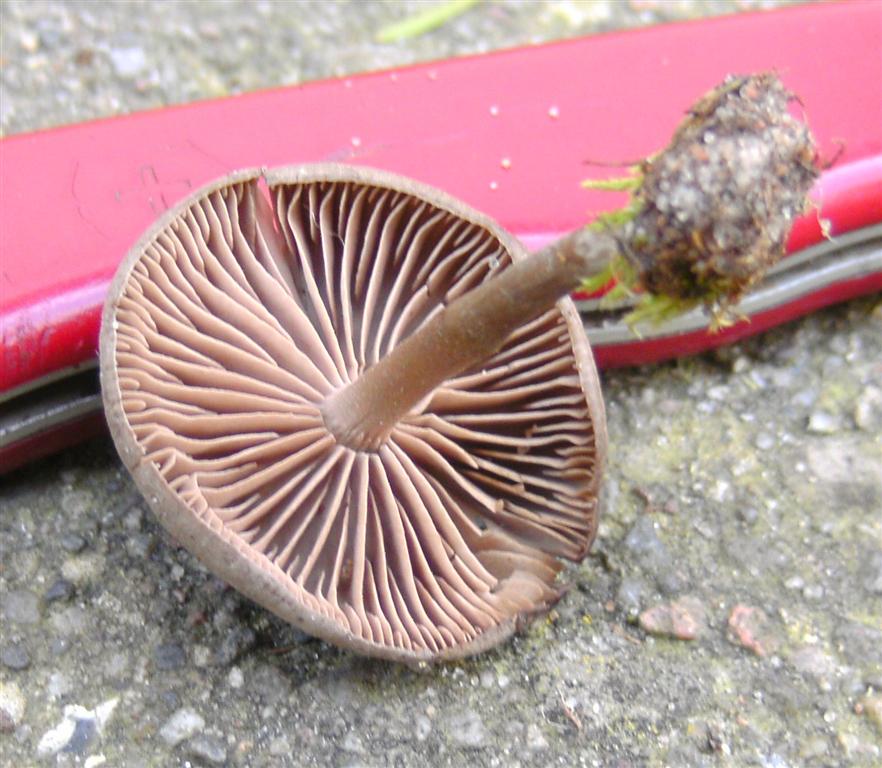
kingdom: Fungi
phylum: Basidiomycota
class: Agaricomycetes
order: Agaricales
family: Entolomataceae
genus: Entoloma
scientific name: Entoloma sericeum
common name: silkeglinsende rødblad
